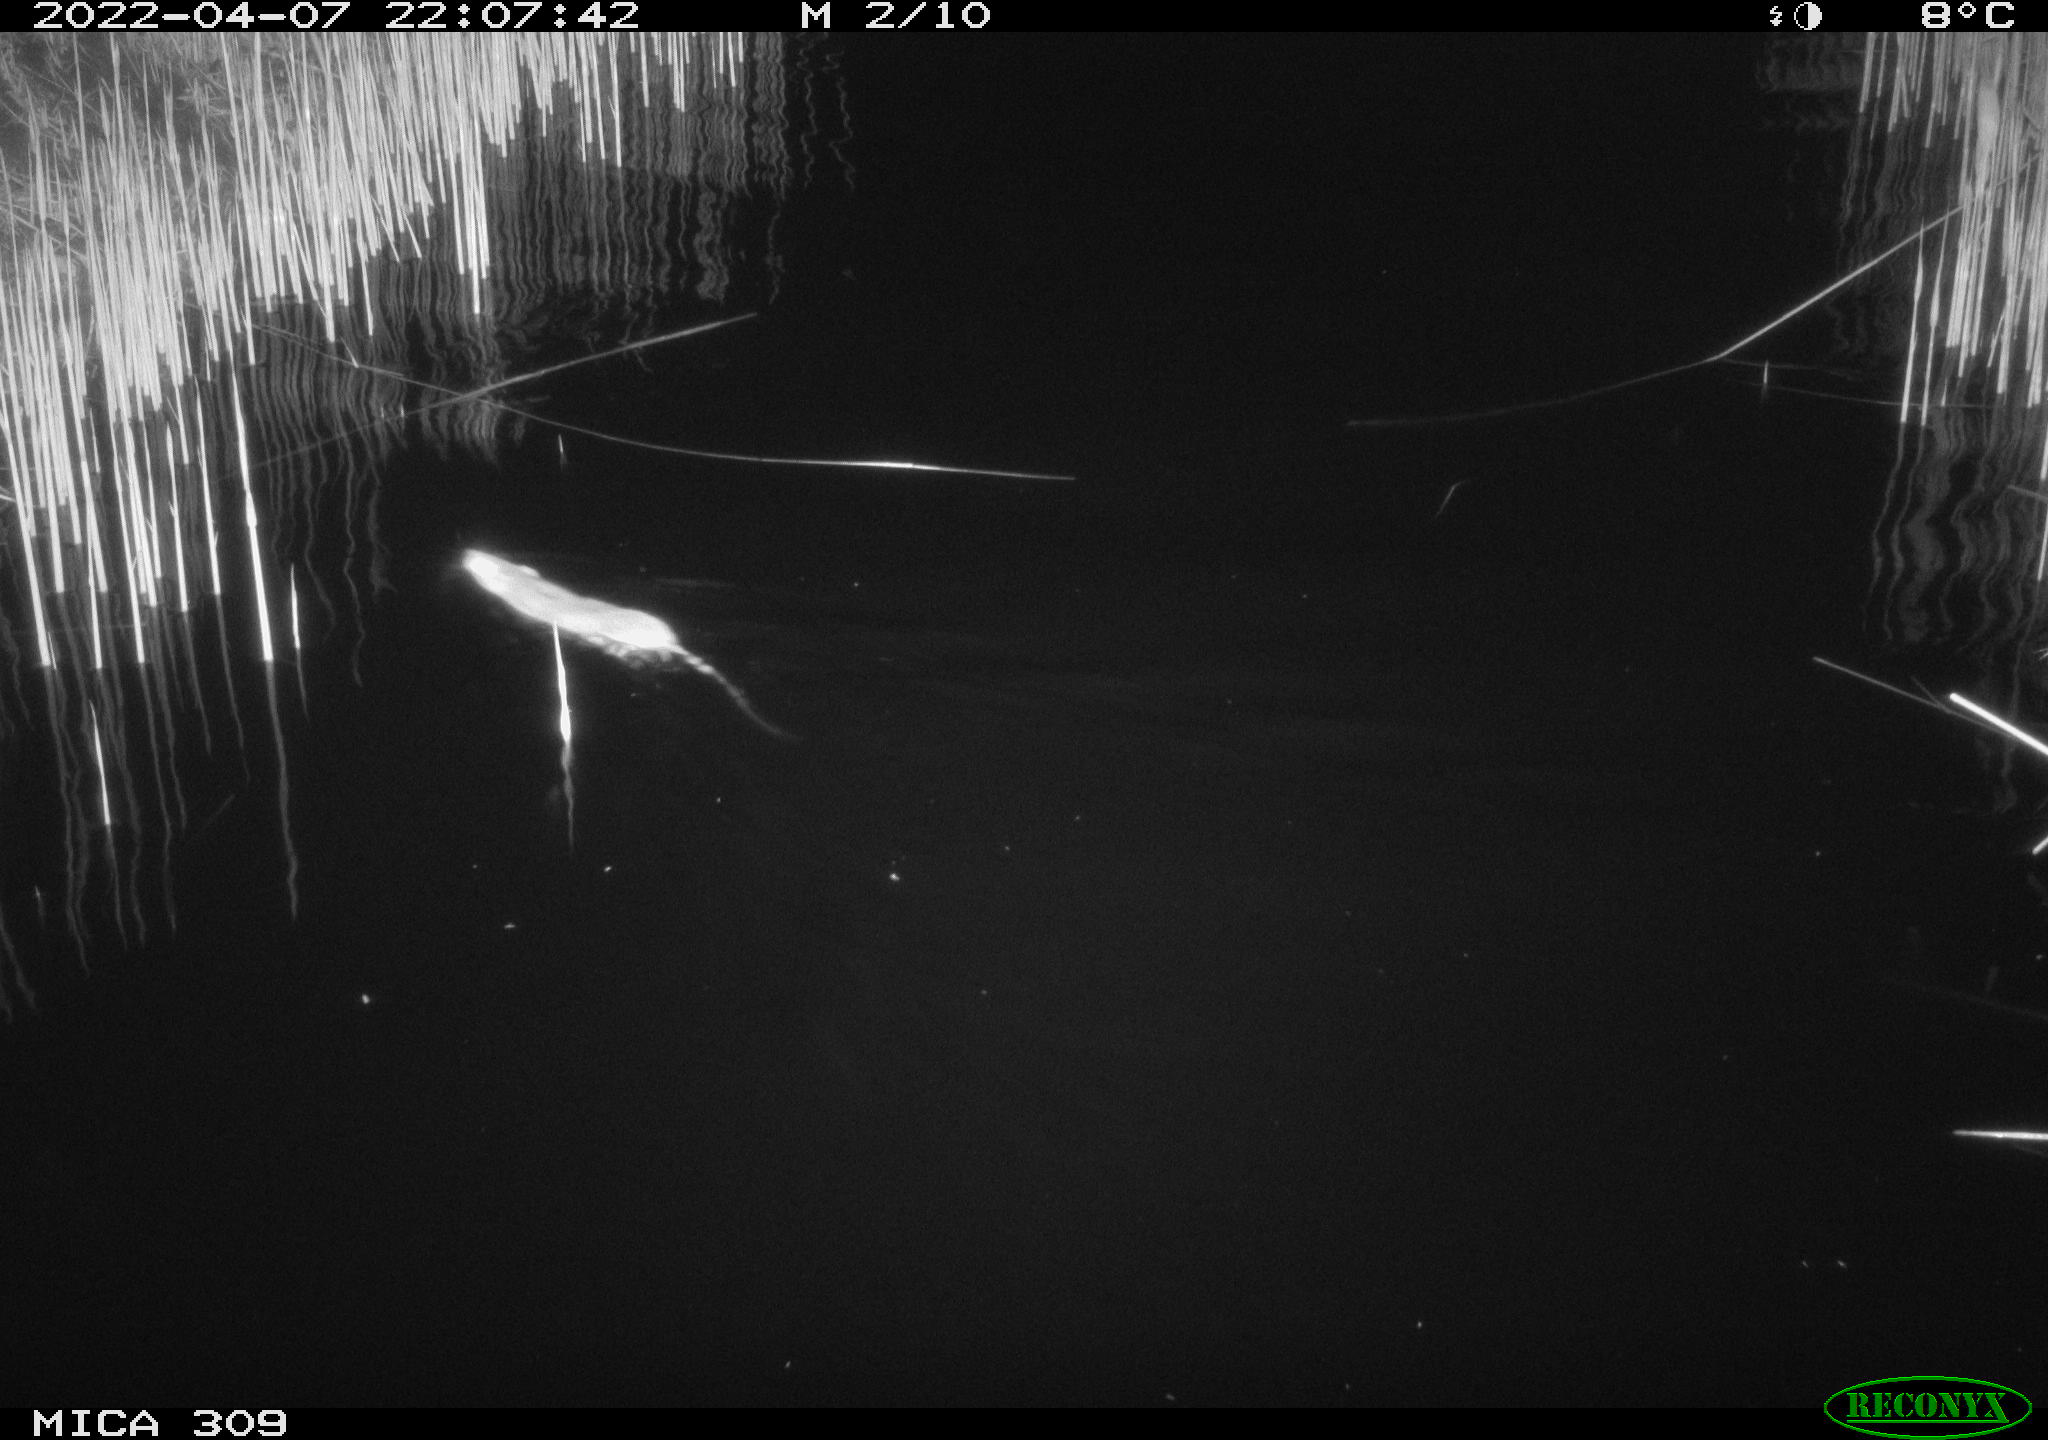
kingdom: Animalia
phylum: Chordata
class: Mammalia
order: Rodentia
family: Muridae
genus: Rattus
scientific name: Rattus norvegicus
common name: Brown rat
